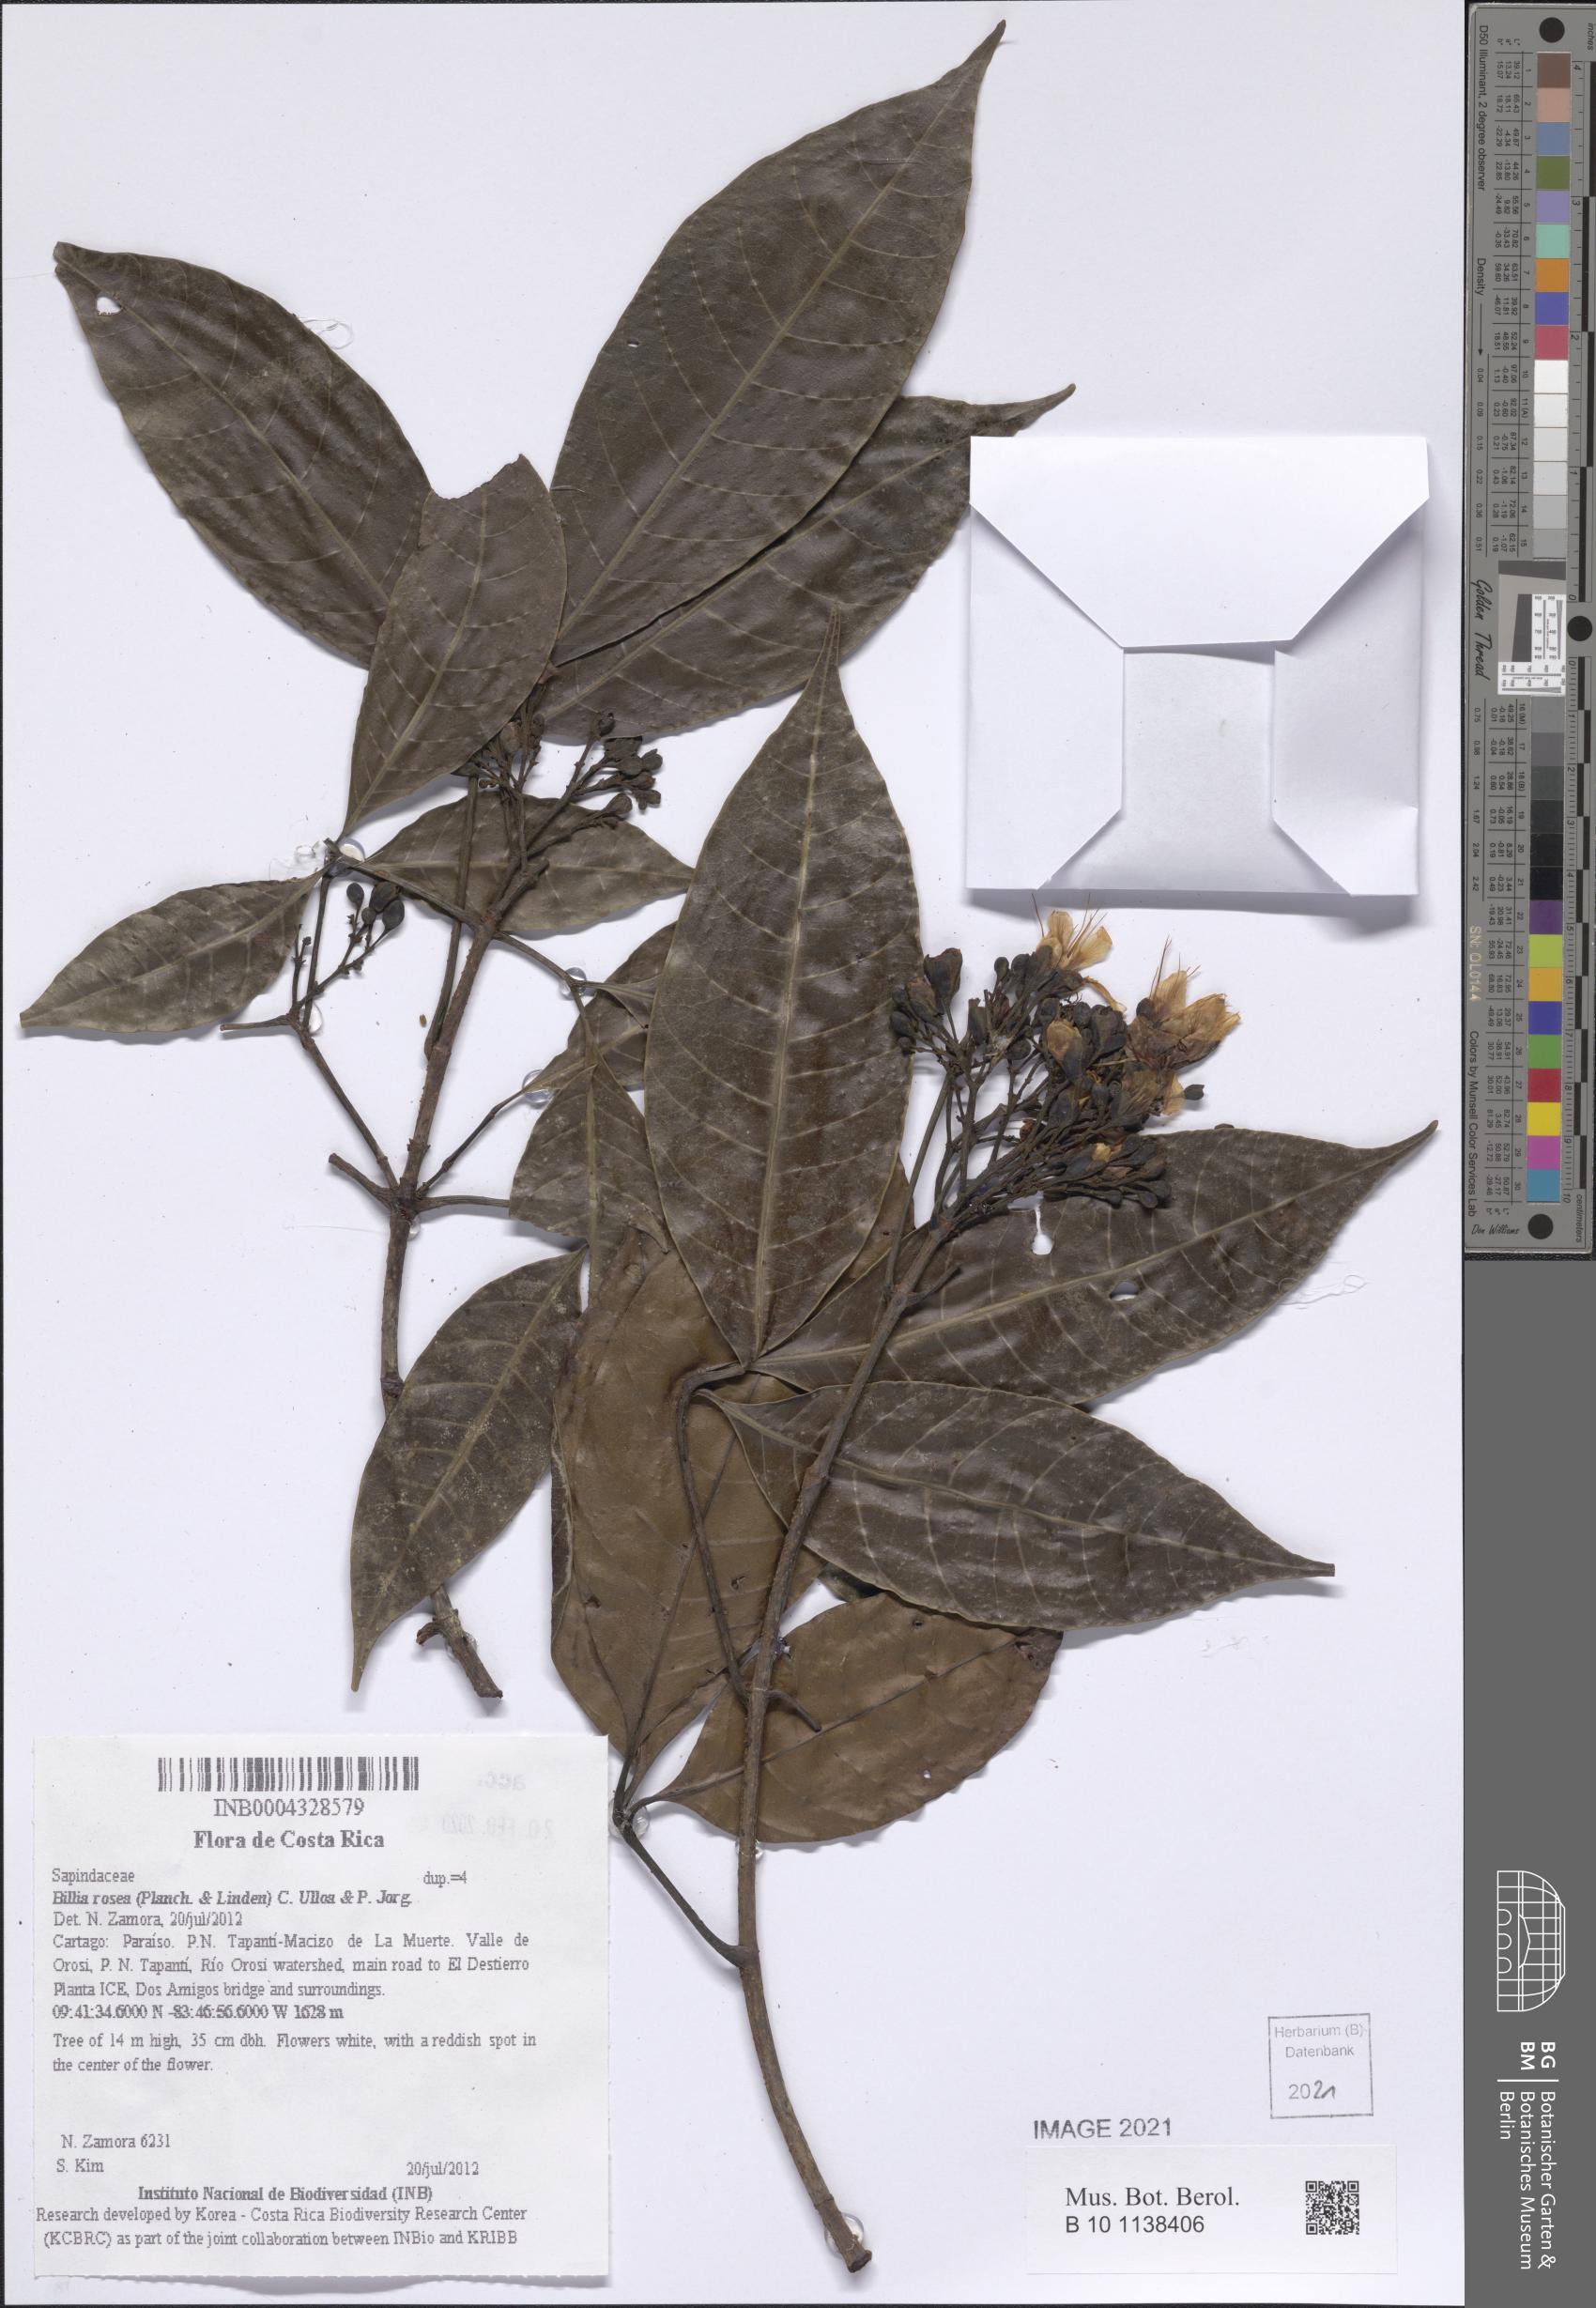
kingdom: Plantae
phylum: Tracheophyta
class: Magnoliopsida
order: Sapindales
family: Sapindaceae
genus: Billia
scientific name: Billia rosea
